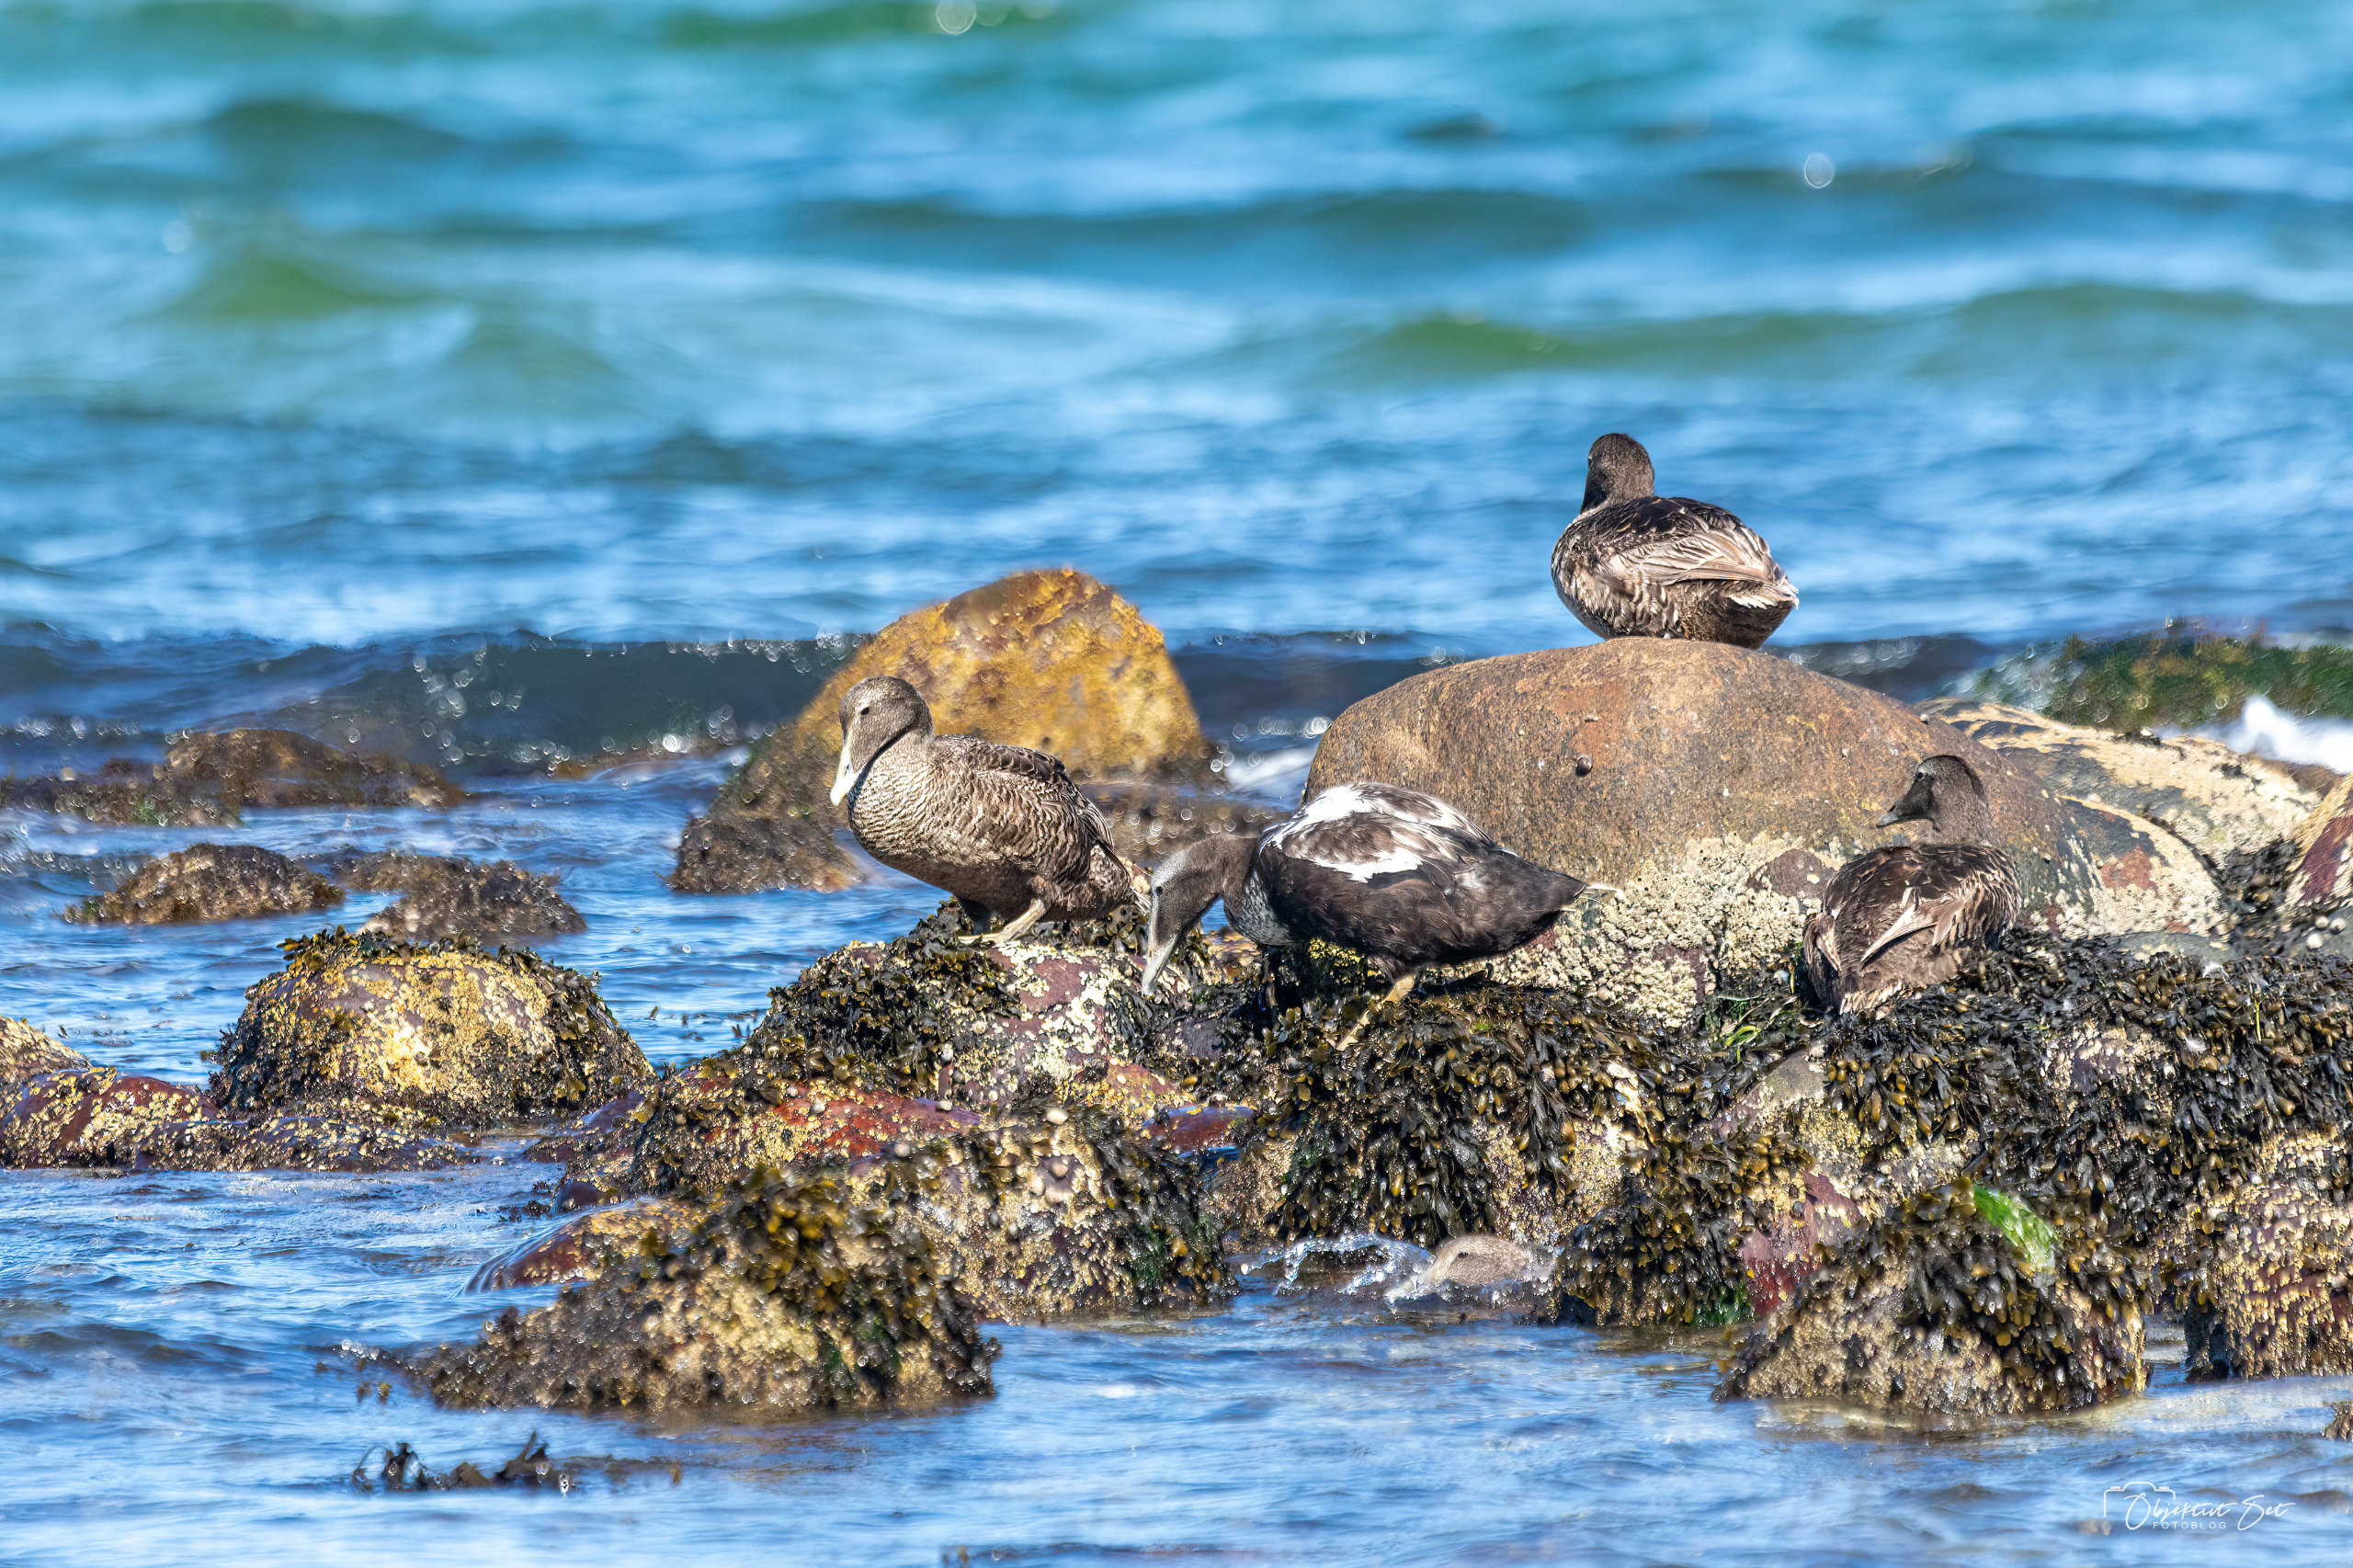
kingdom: Animalia
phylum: Chordata
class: Aves
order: Anseriformes
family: Anatidae
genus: Somateria
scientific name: Somateria mollissima
